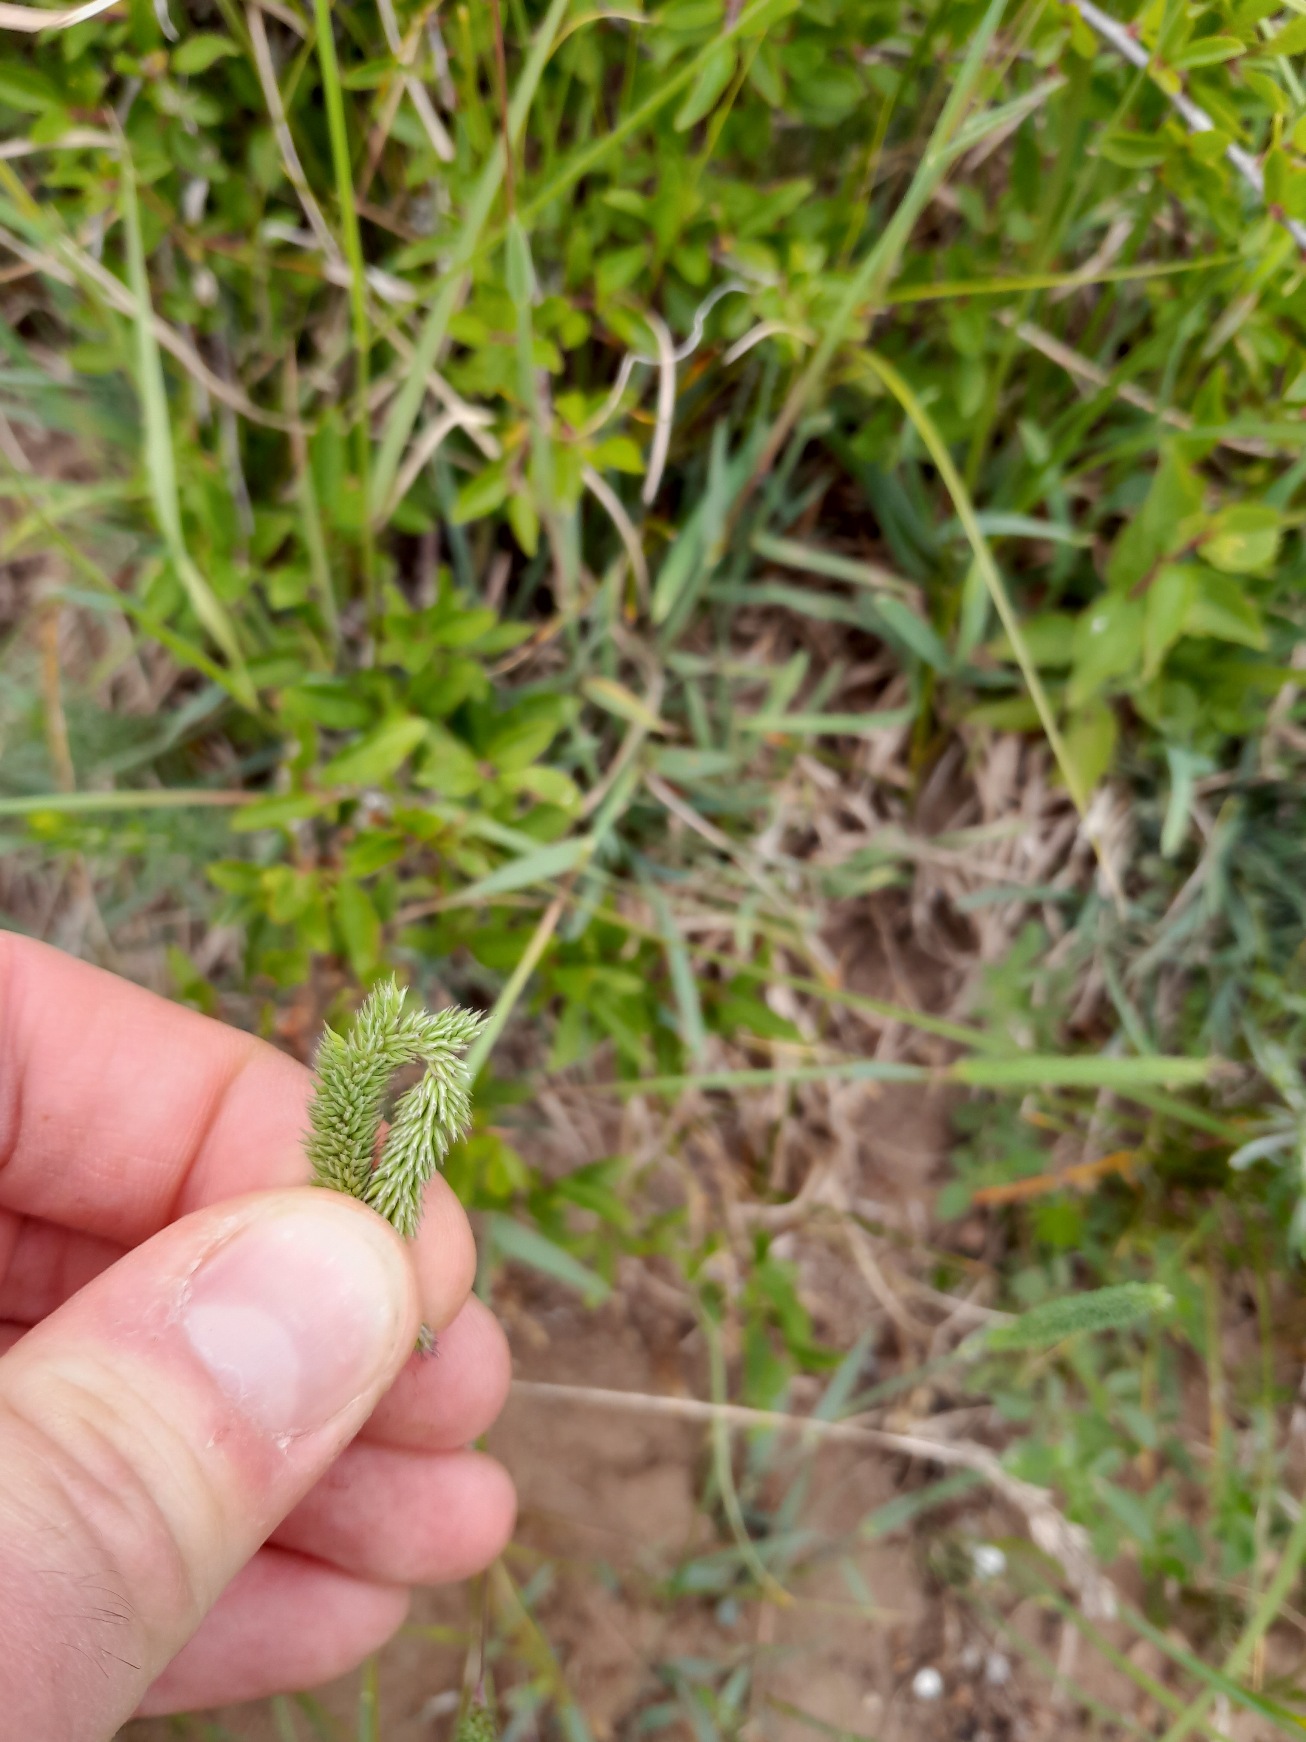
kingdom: Plantae
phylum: Tracheophyta
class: Liliopsida
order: Poales
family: Poaceae
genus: Phleum
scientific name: Phleum phleoides
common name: Glat rottehale
